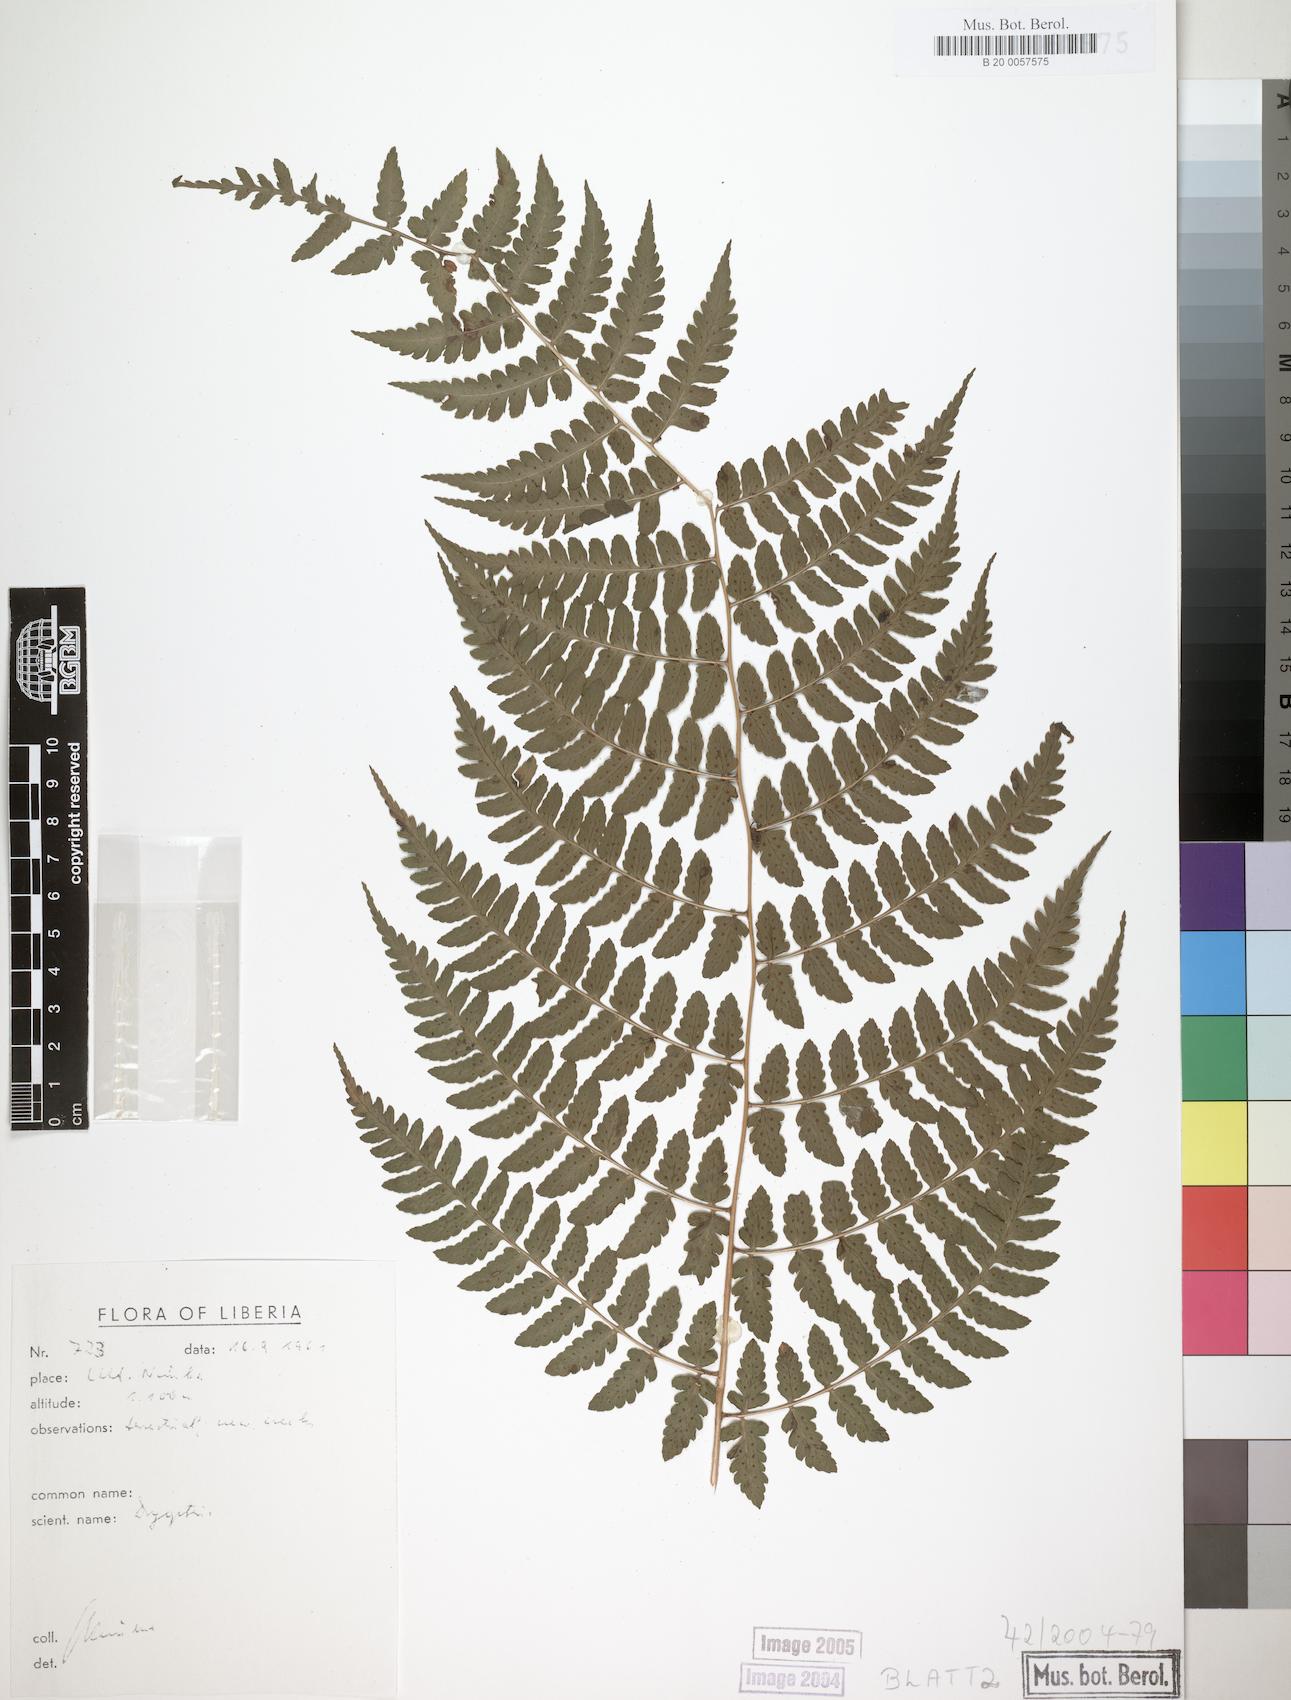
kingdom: Plantae
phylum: Tracheophyta
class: Polypodiopsida
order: Polypodiales
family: Dryopteridaceae
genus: Dryopteris
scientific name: Dryopteris manniana
